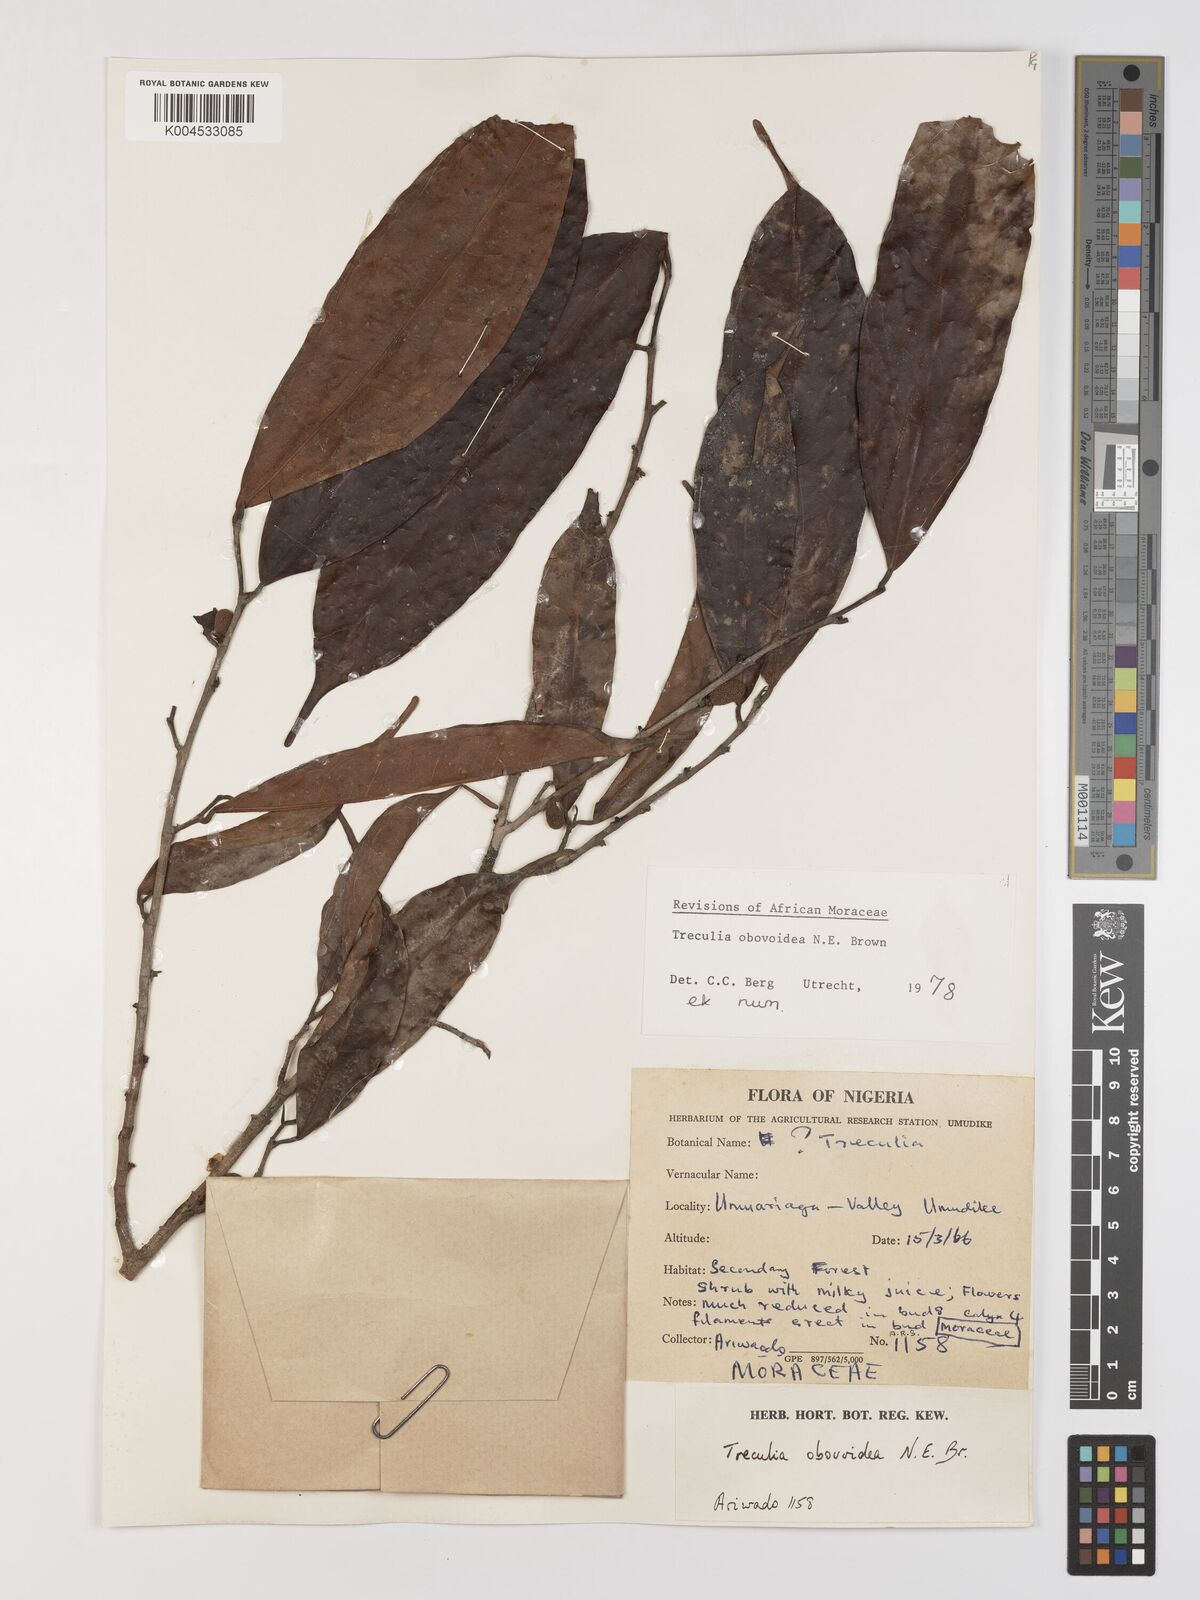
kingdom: Plantae
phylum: Tracheophyta
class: Magnoliopsida
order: Rosales
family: Moraceae
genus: Treculia
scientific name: Treculia obovoidea
